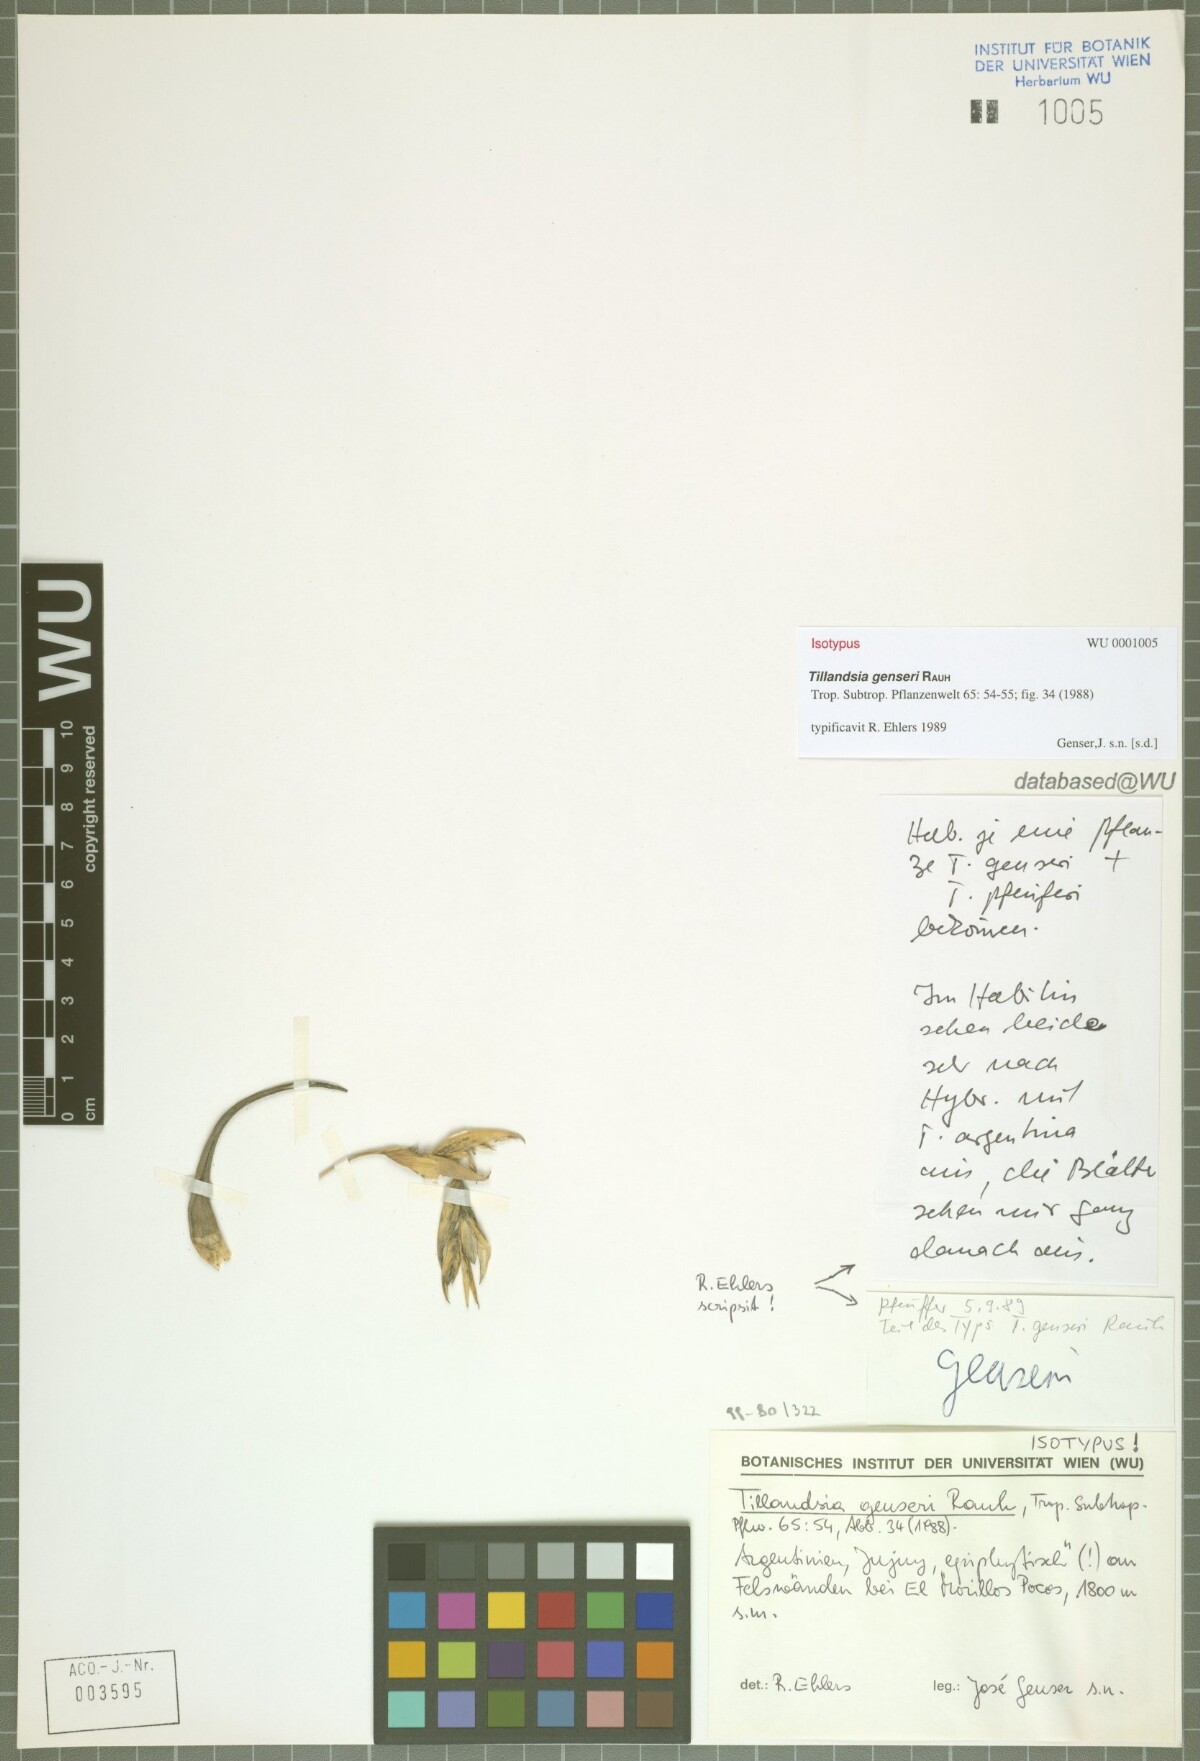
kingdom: Plantae
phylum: Tracheophyta
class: Liliopsida
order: Poales
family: Bromeliaceae
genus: Tillandsia
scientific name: Tillandsia genseri
